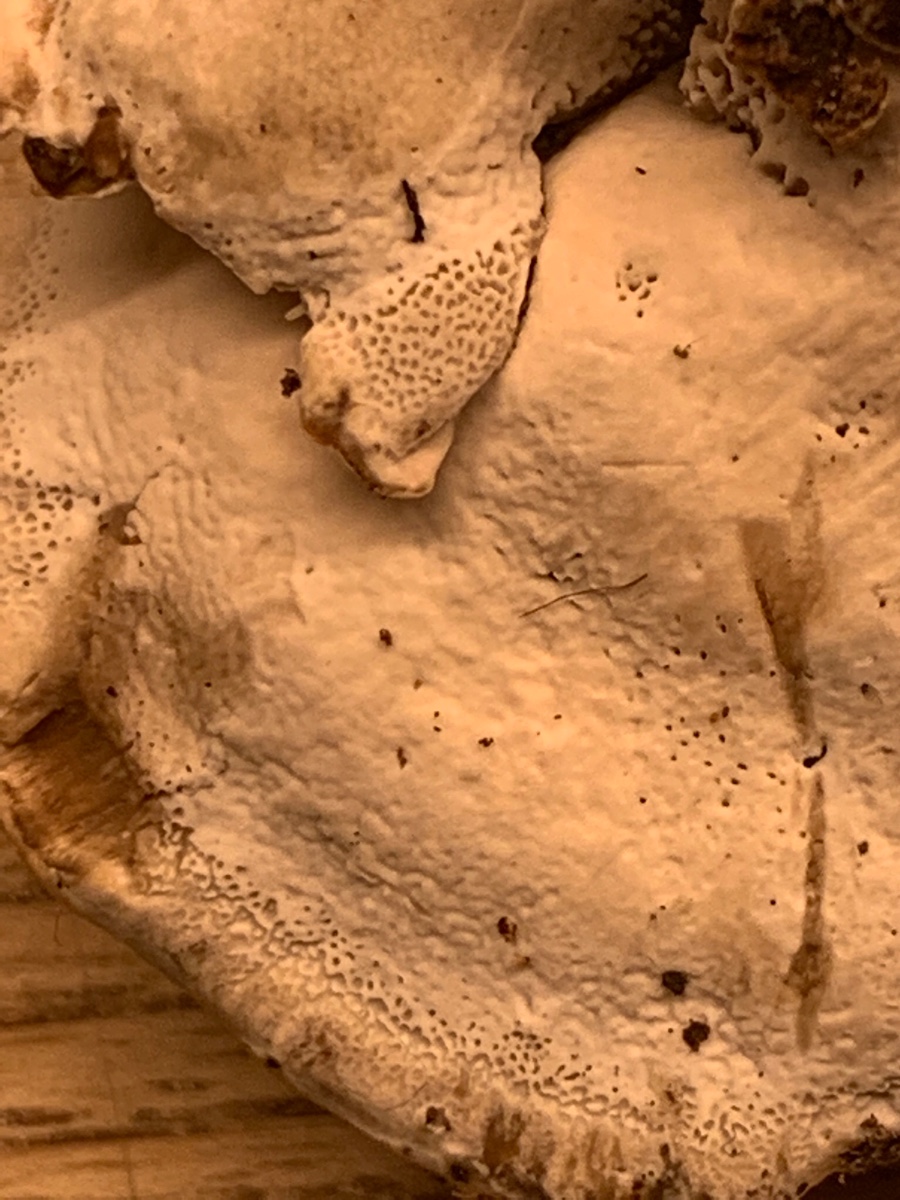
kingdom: Fungi
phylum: Basidiomycota
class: Agaricomycetes
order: Polyporales
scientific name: Polyporales
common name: poresvampordenen
